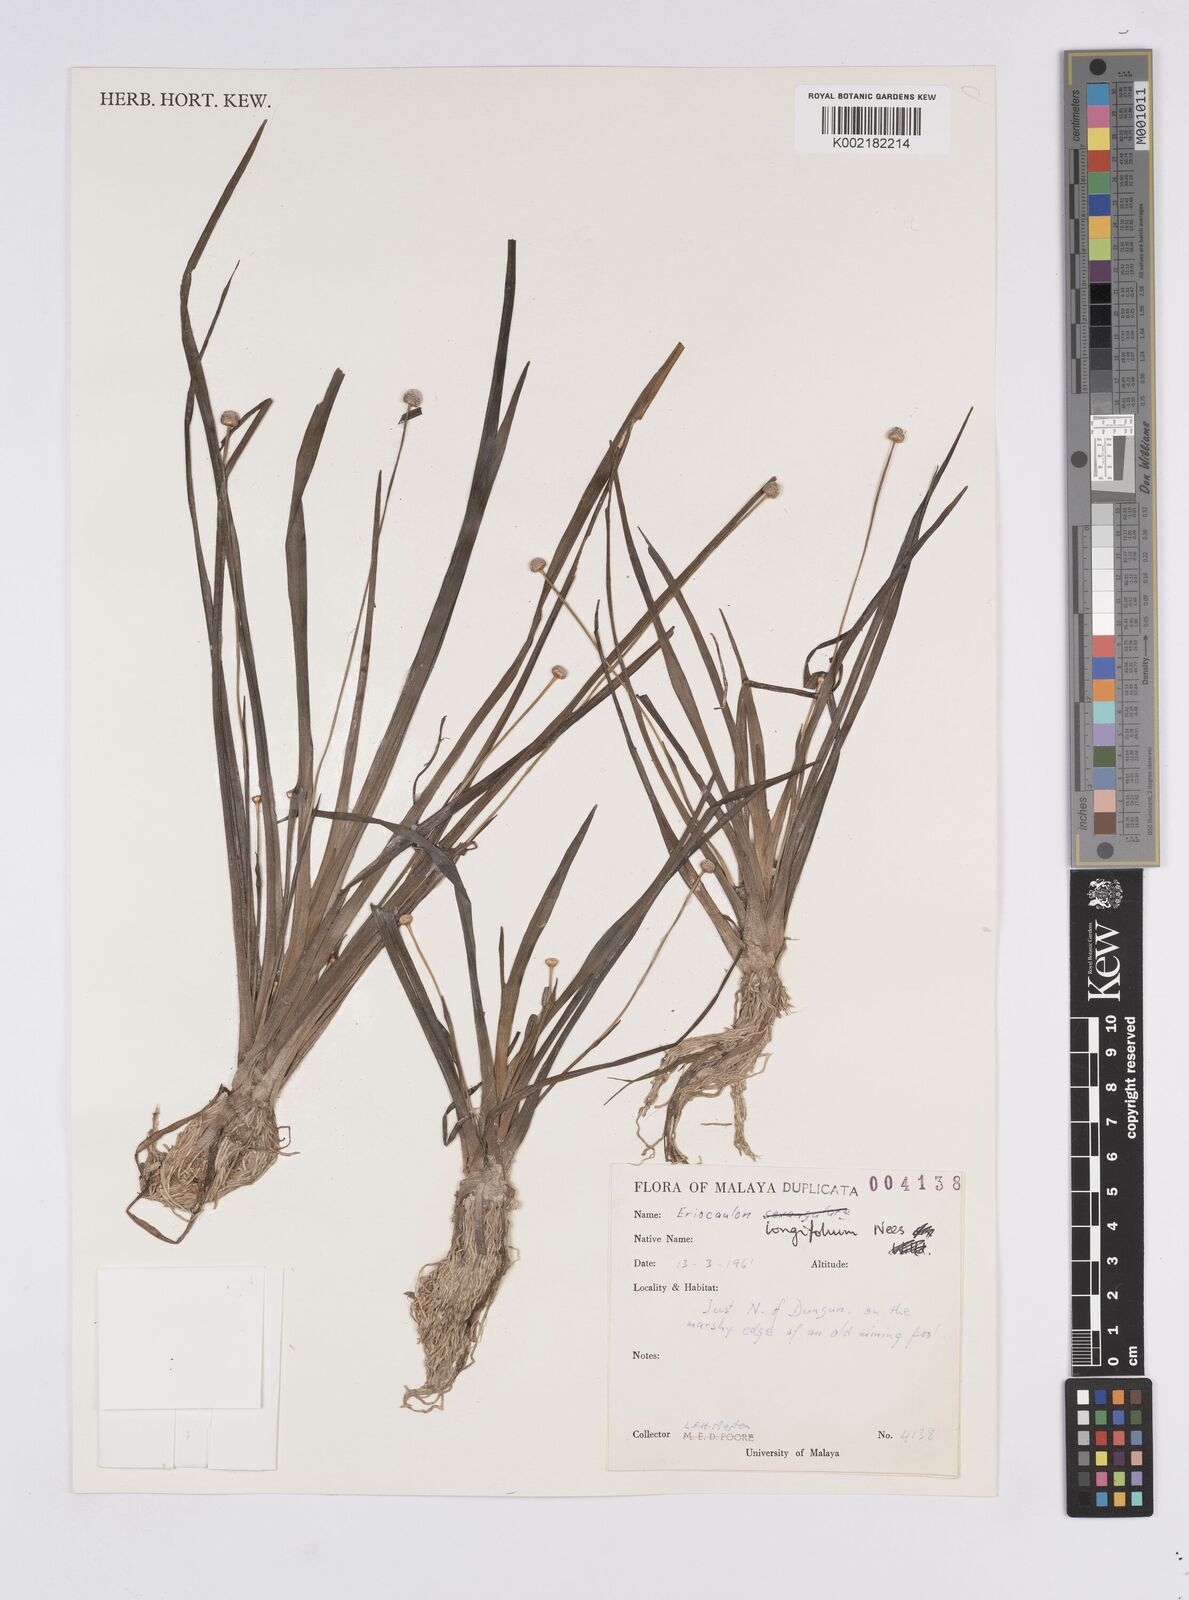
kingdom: Plantae
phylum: Tracheophyta
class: Liliopsida
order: Poales
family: Eriocaulaceae
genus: Eriocaulon
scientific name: Eriocaulon willdenovianum
